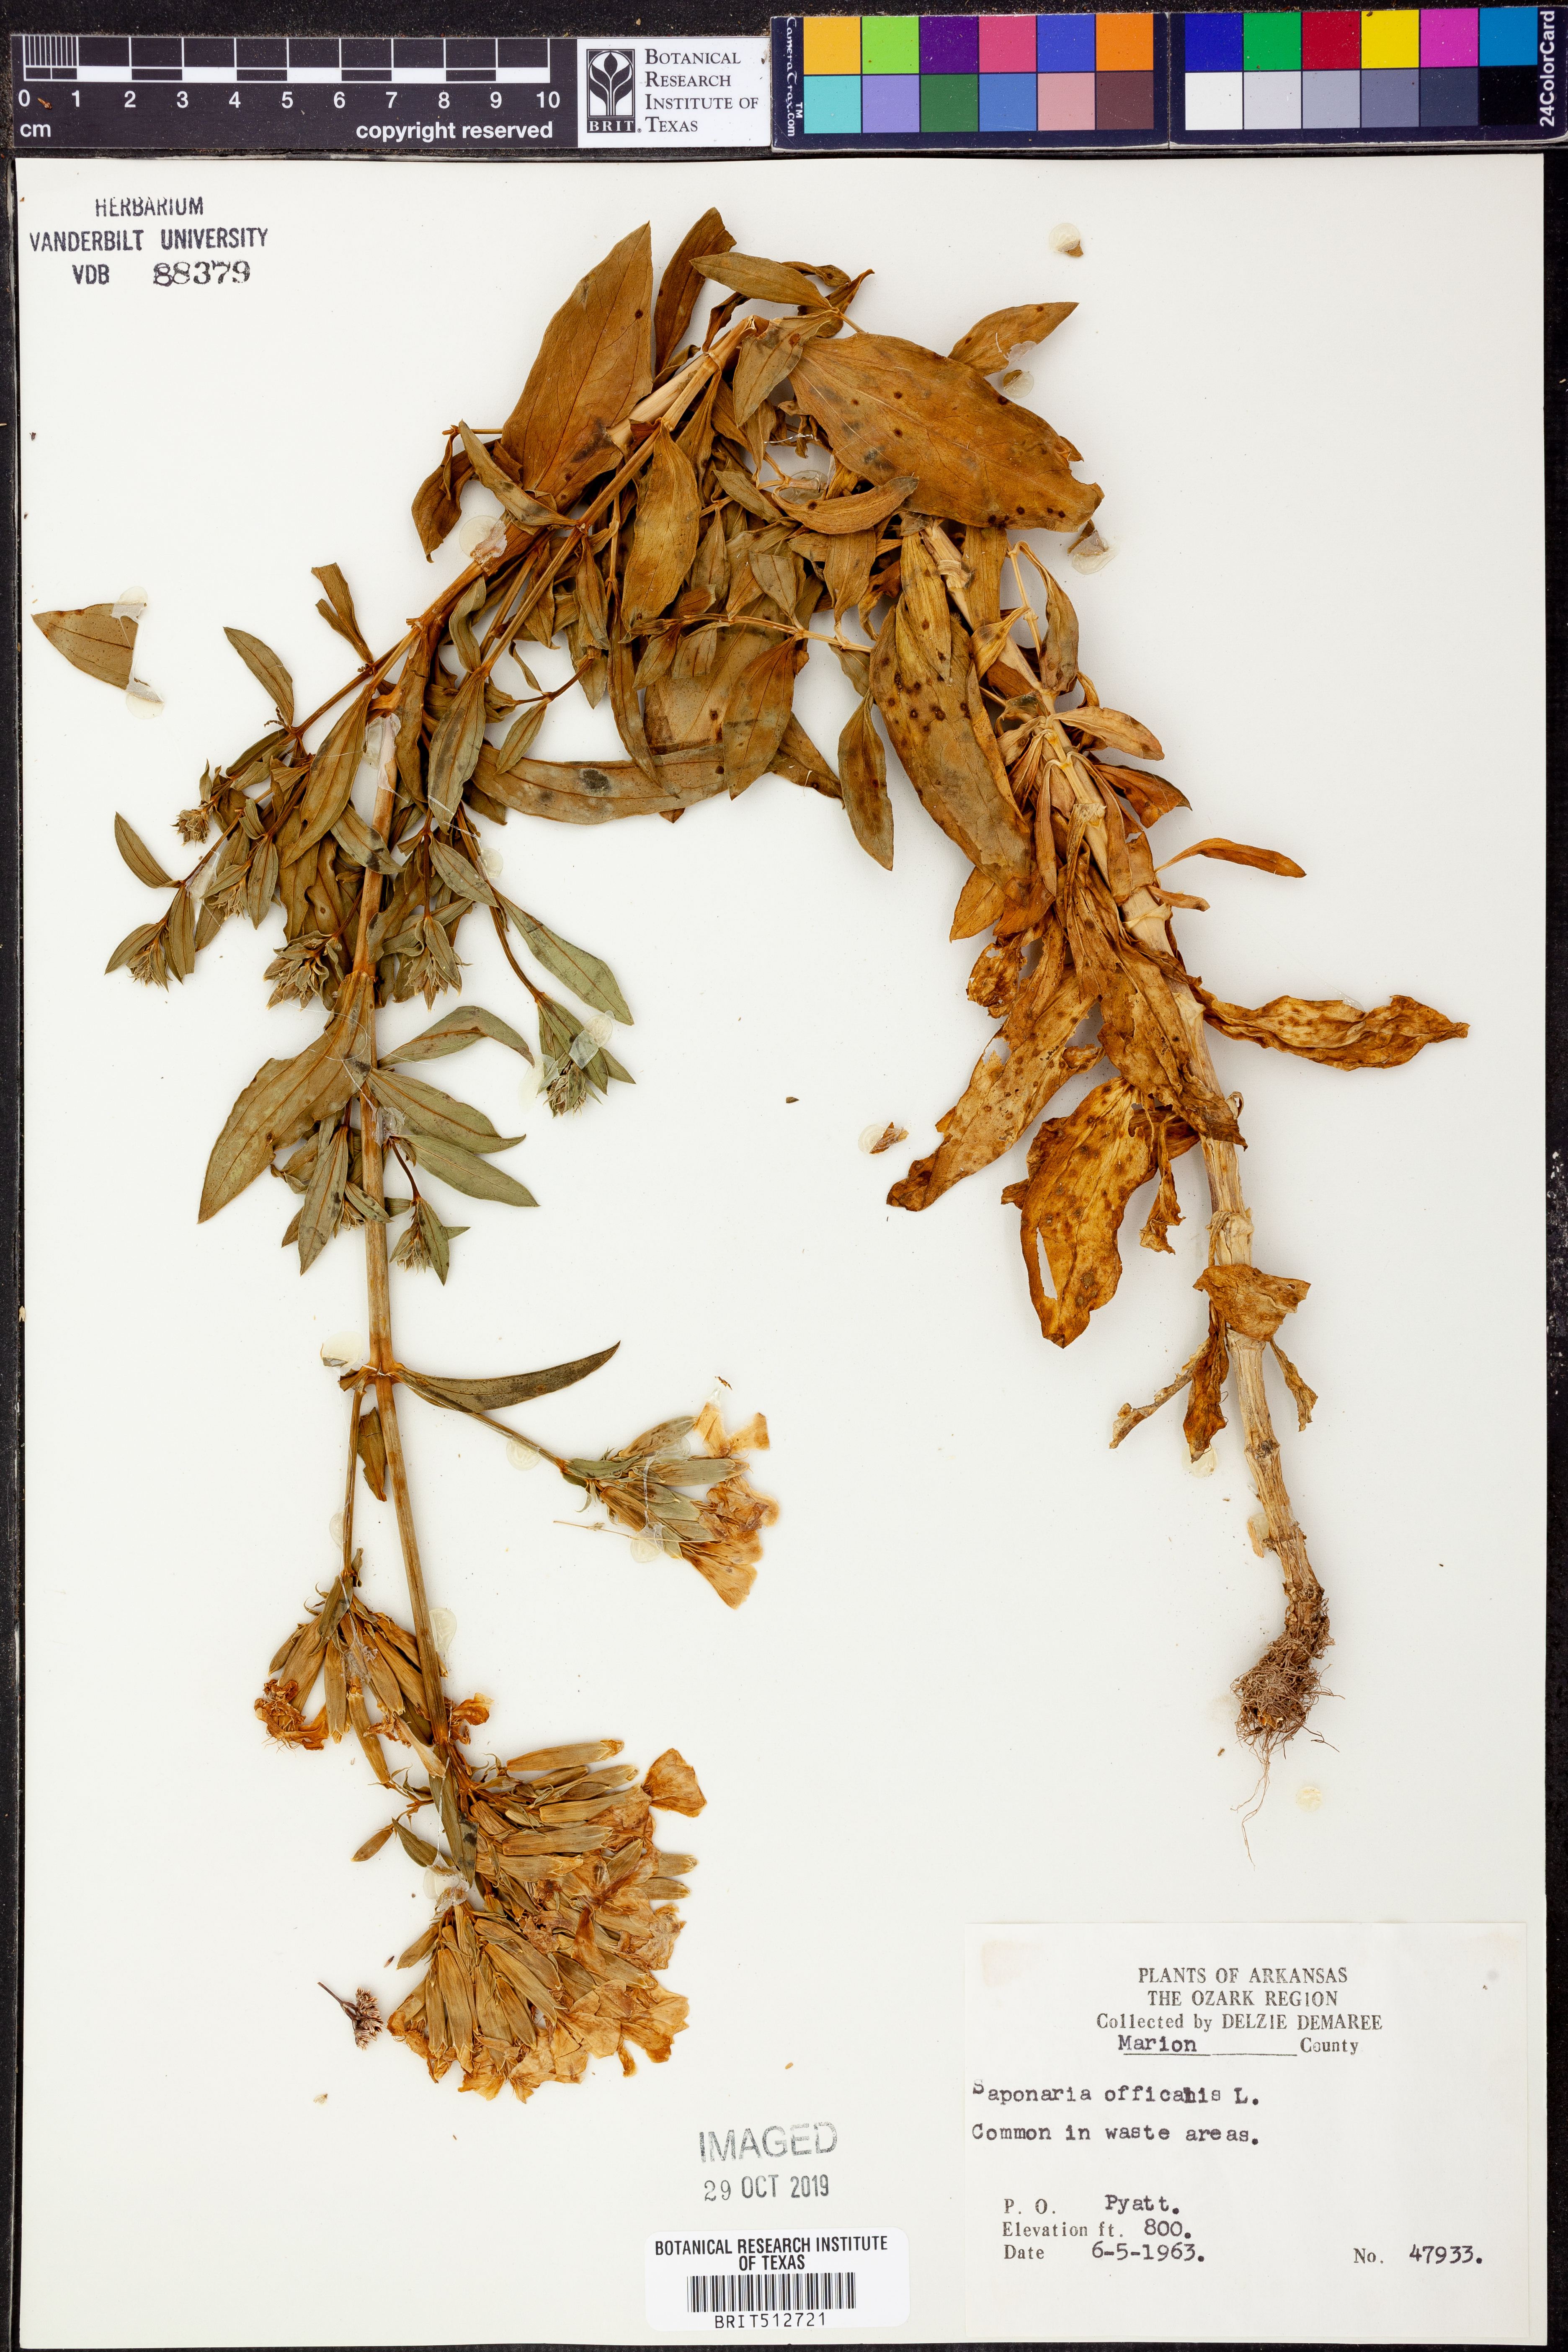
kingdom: Plantae
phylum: Tracheophyta
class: Magnoliopsida
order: Caryophyllales
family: Caryophyllaceae
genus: Saponaria
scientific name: Saponaria officinalis
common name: Soapwort
